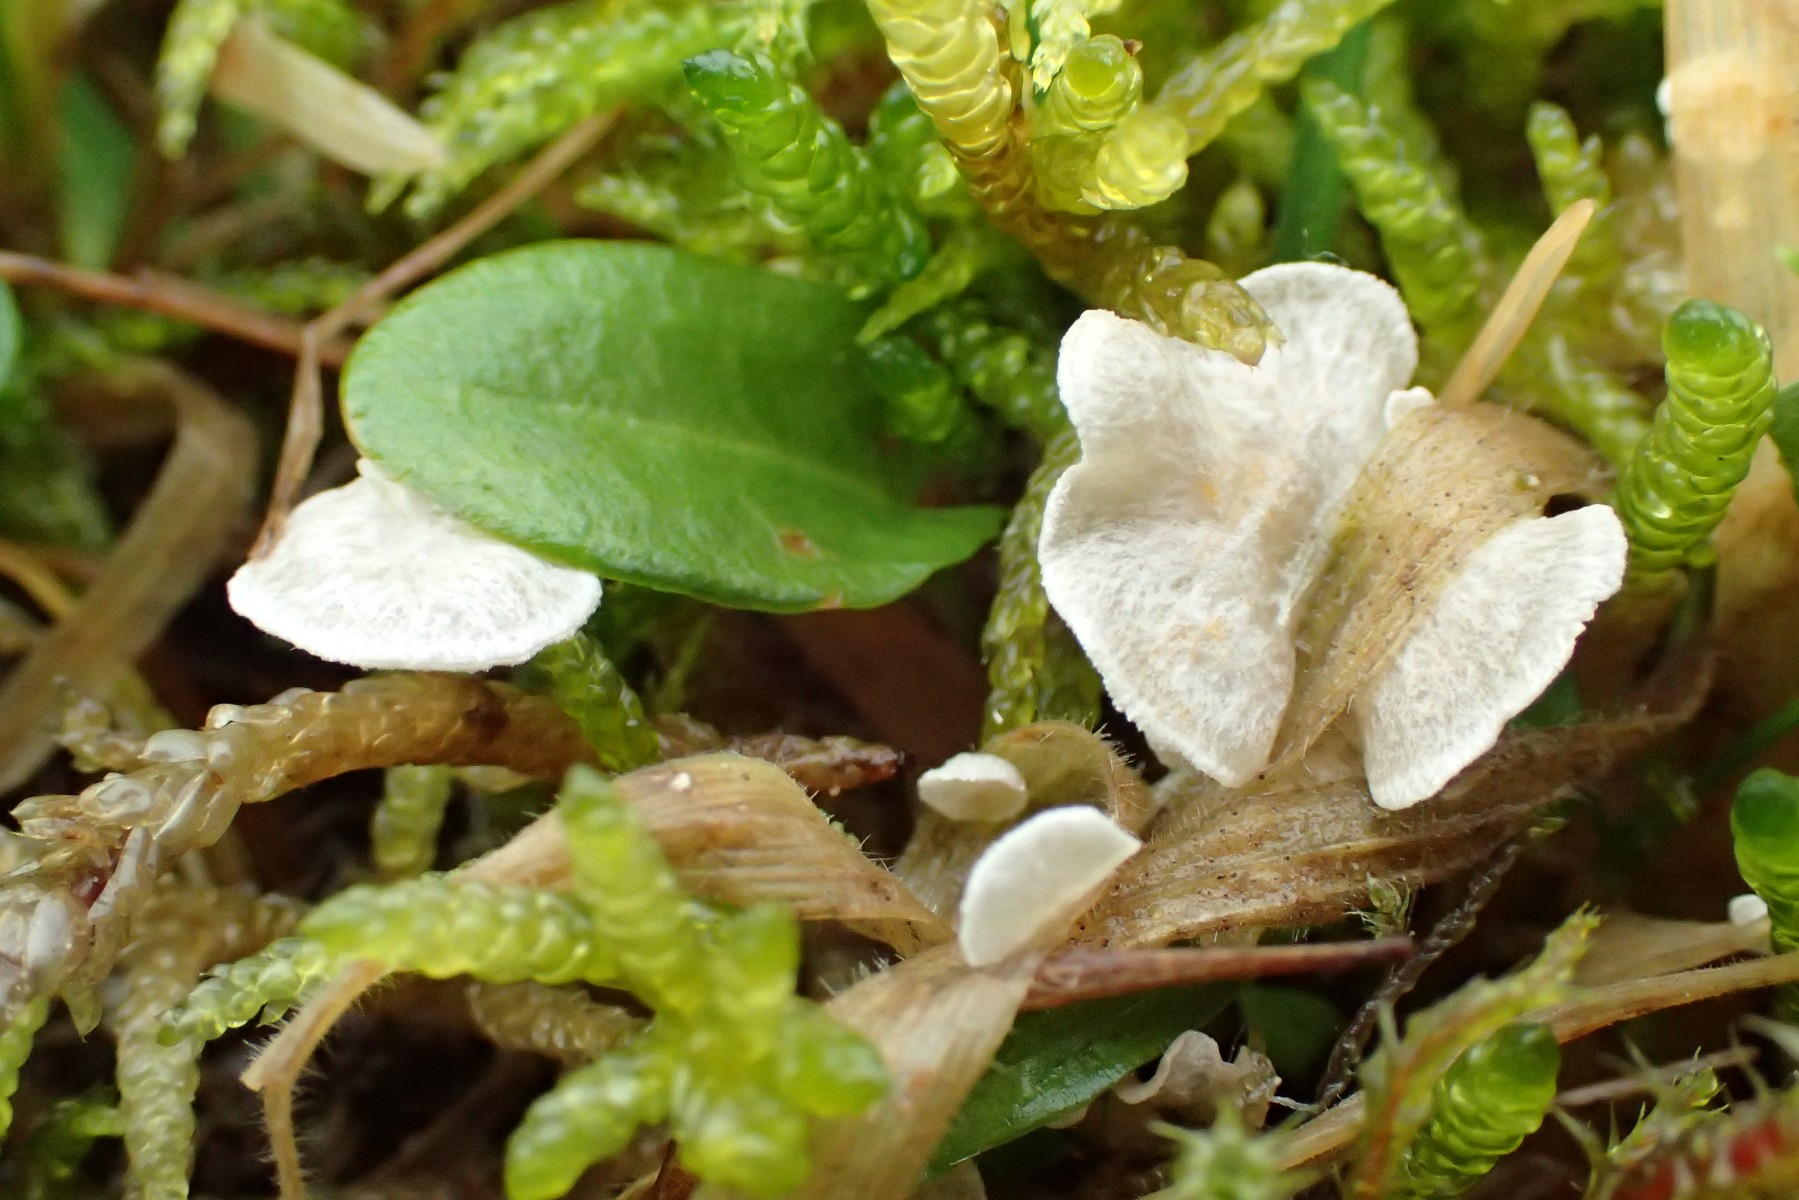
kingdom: Fungi
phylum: Basidiomycota
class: Agaricomycetes
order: Agaricales
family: Hygrophoraceae
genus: Arrhenia
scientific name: Arrhenia retiruga
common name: lille fontænehat
